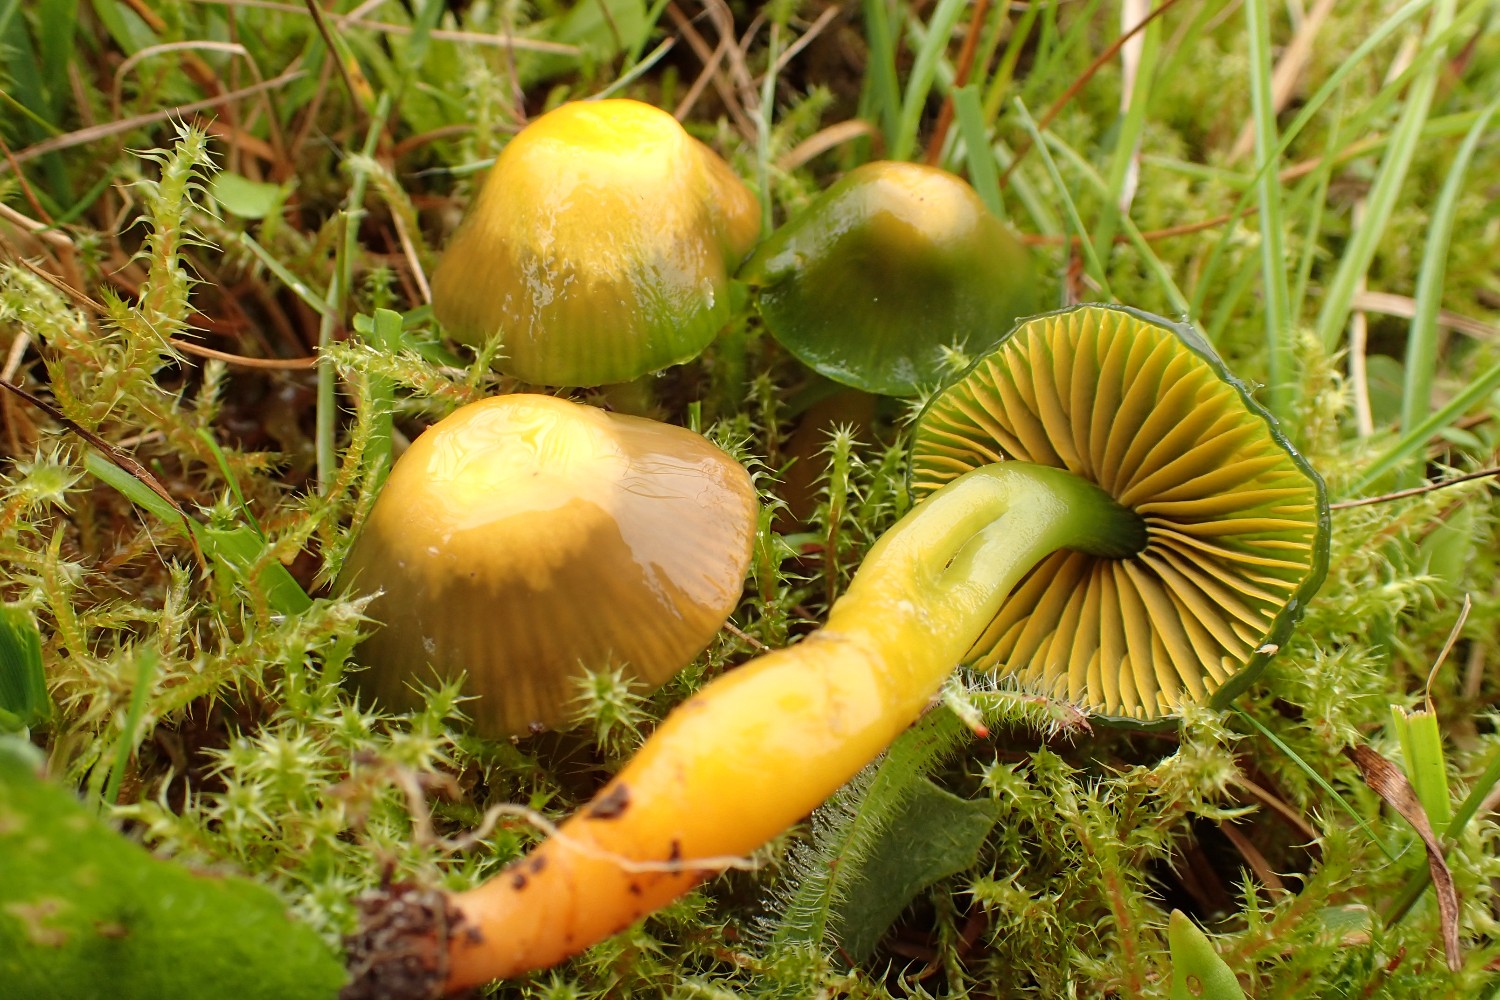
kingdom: Fungi
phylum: Basidiomycota
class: Agaricomycetes
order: Agaricales
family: Hygrophoraceae
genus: Gliophorus
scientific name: Gliophorus psittacinus
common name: papegøje-vokshat
